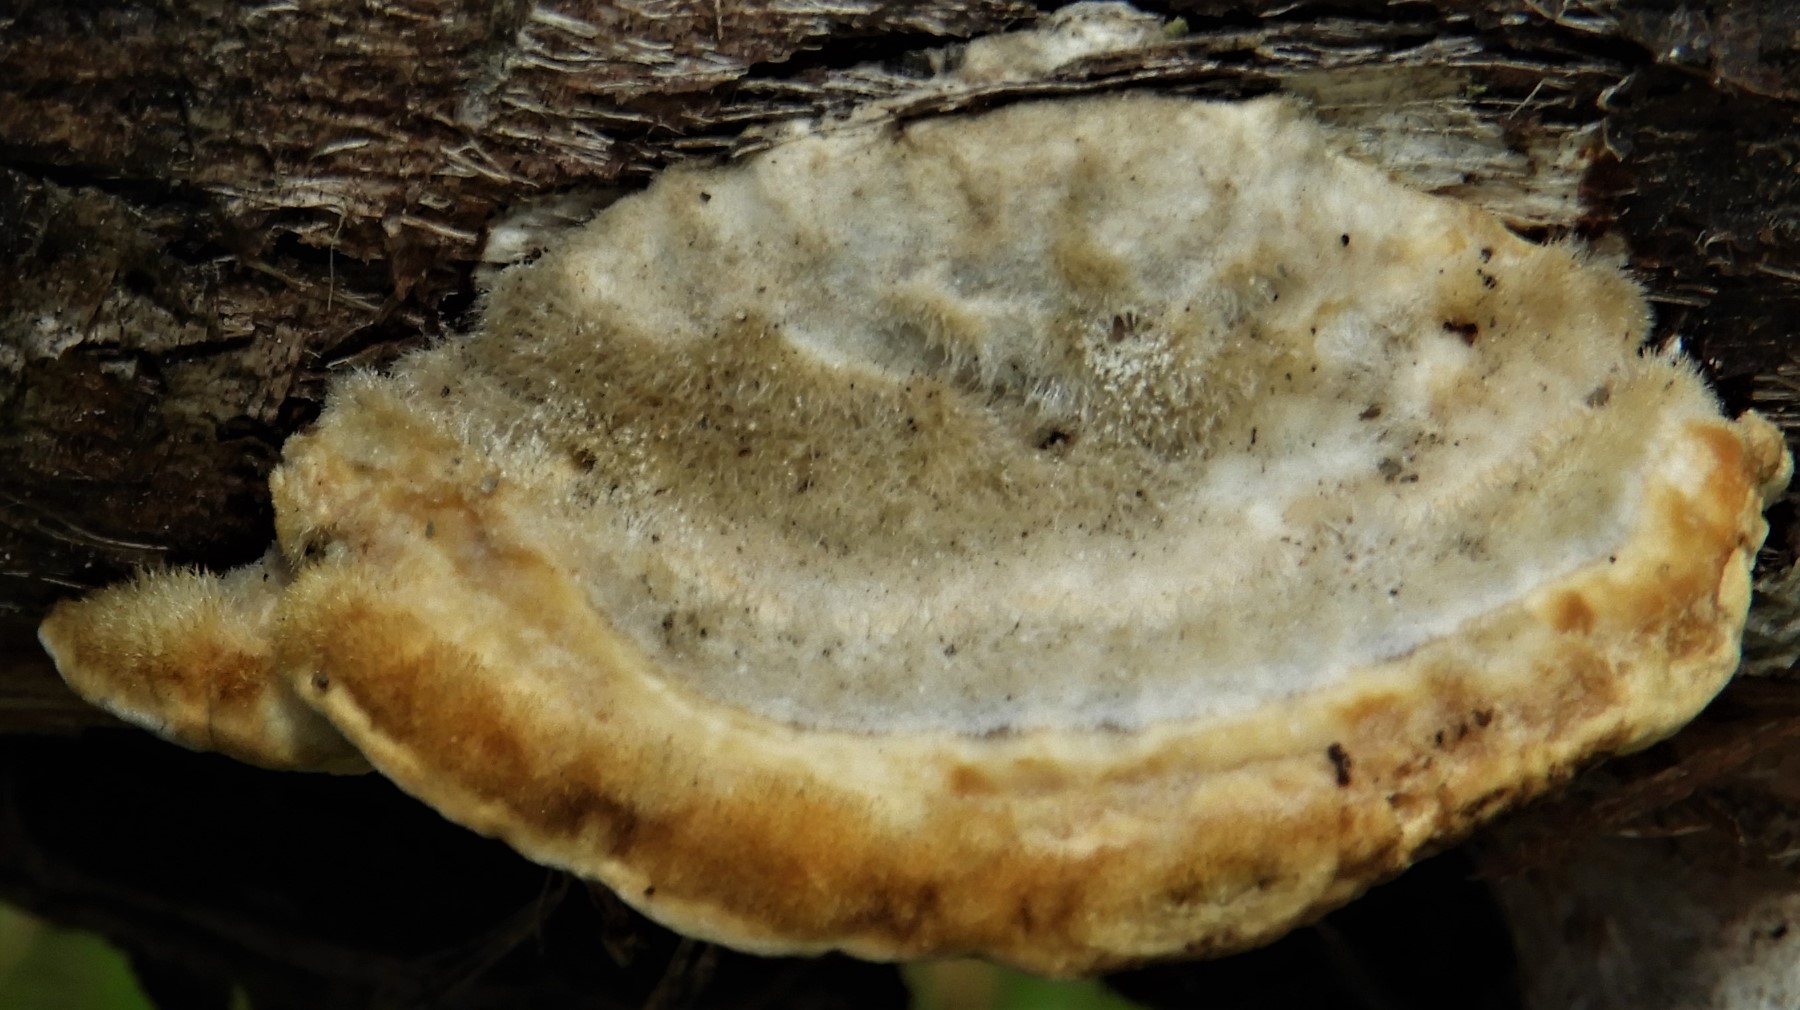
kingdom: Fungi
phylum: Basidiomycota
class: Agaricomycetes
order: Polyporales
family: Polyporaceae
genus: Trametes
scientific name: Trametes hirsuta
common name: håret læderporesvamp
